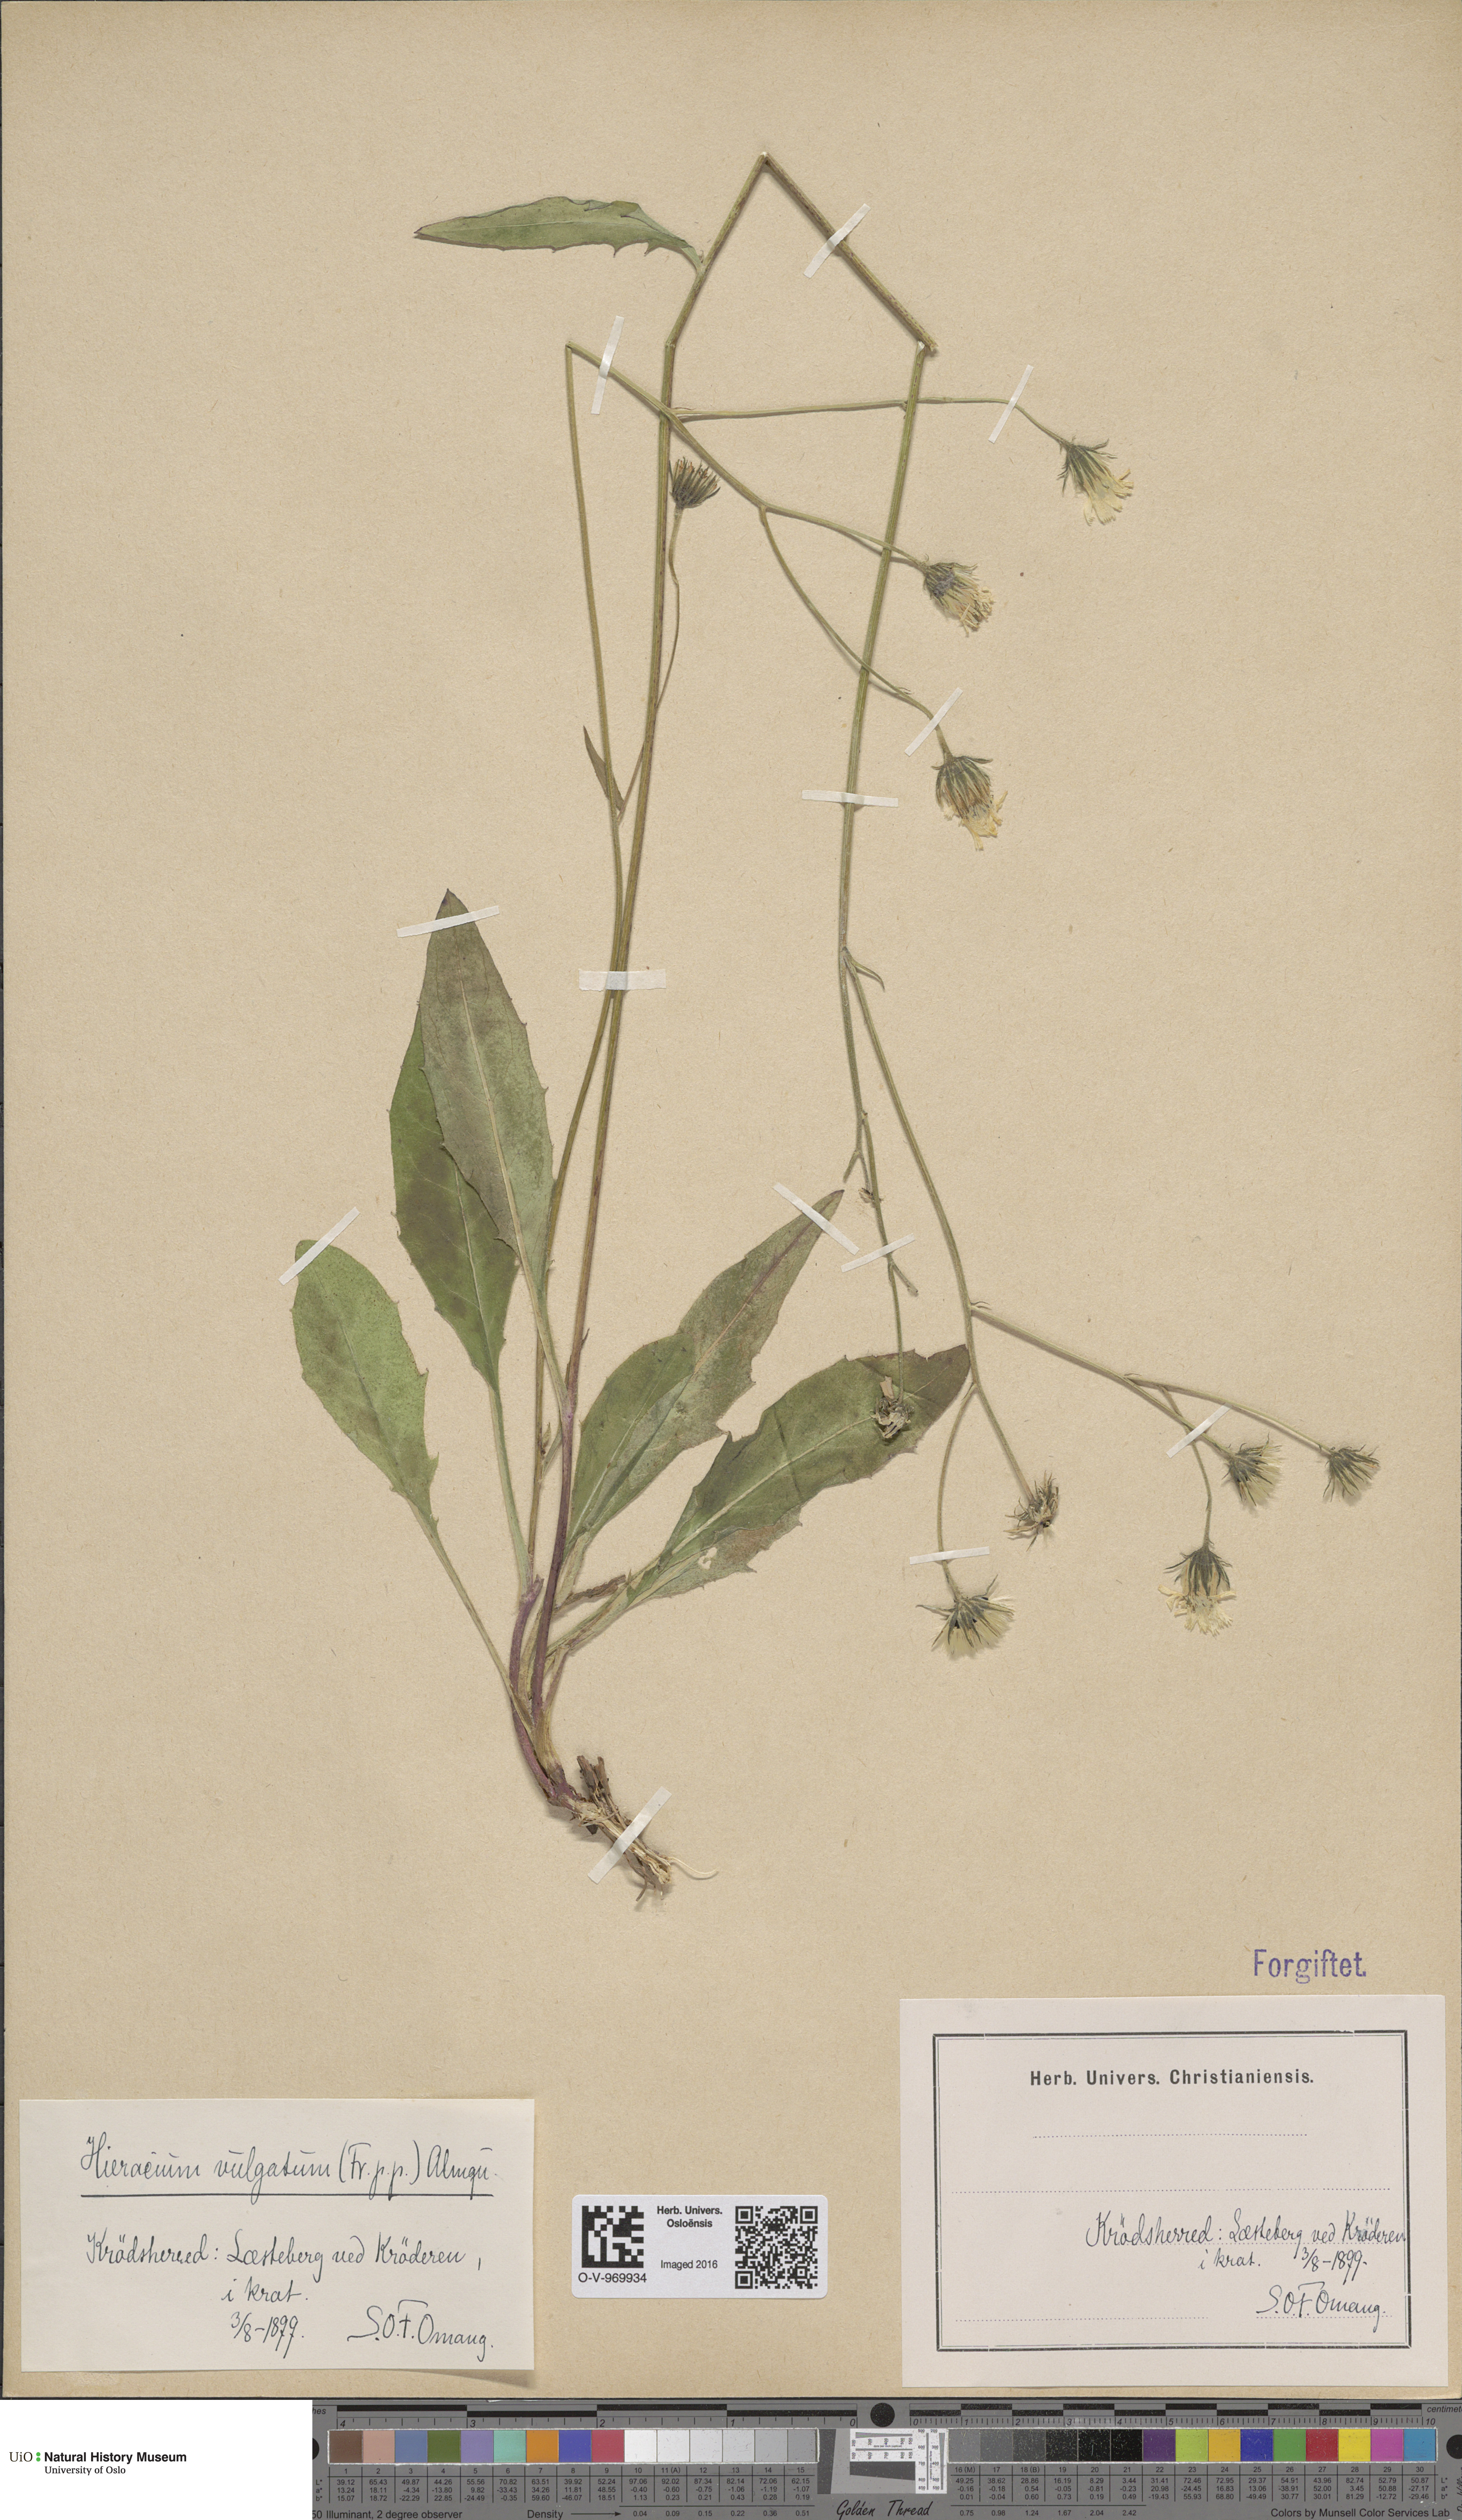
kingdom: Plantae
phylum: Tracheophyta
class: Magnoliopsida
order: Asterales
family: Asteraceae
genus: Hieracium
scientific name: Hieracium vulgatum
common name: Common hawkweed
